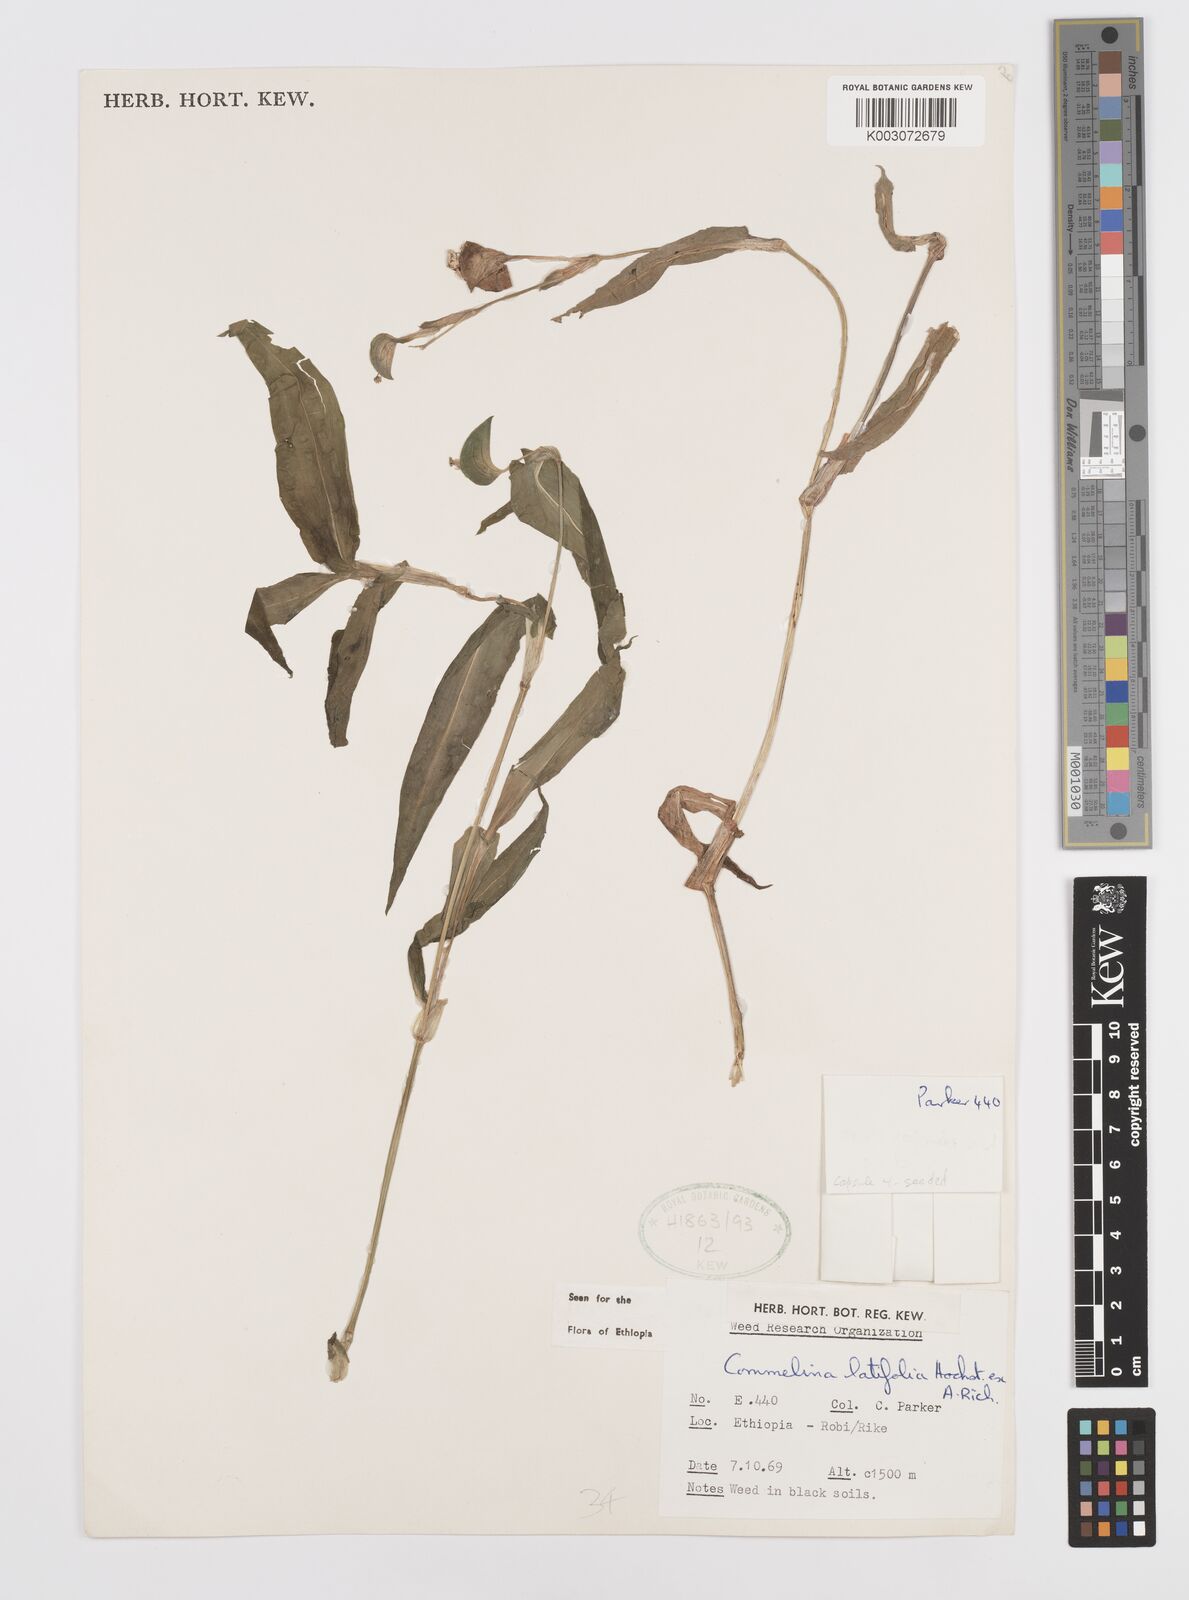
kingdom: Plantae
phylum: Tracheophyta
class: Liliopsida
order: Commelinales
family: Commelinaceae
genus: Commelina
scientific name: Commelina imberbis
